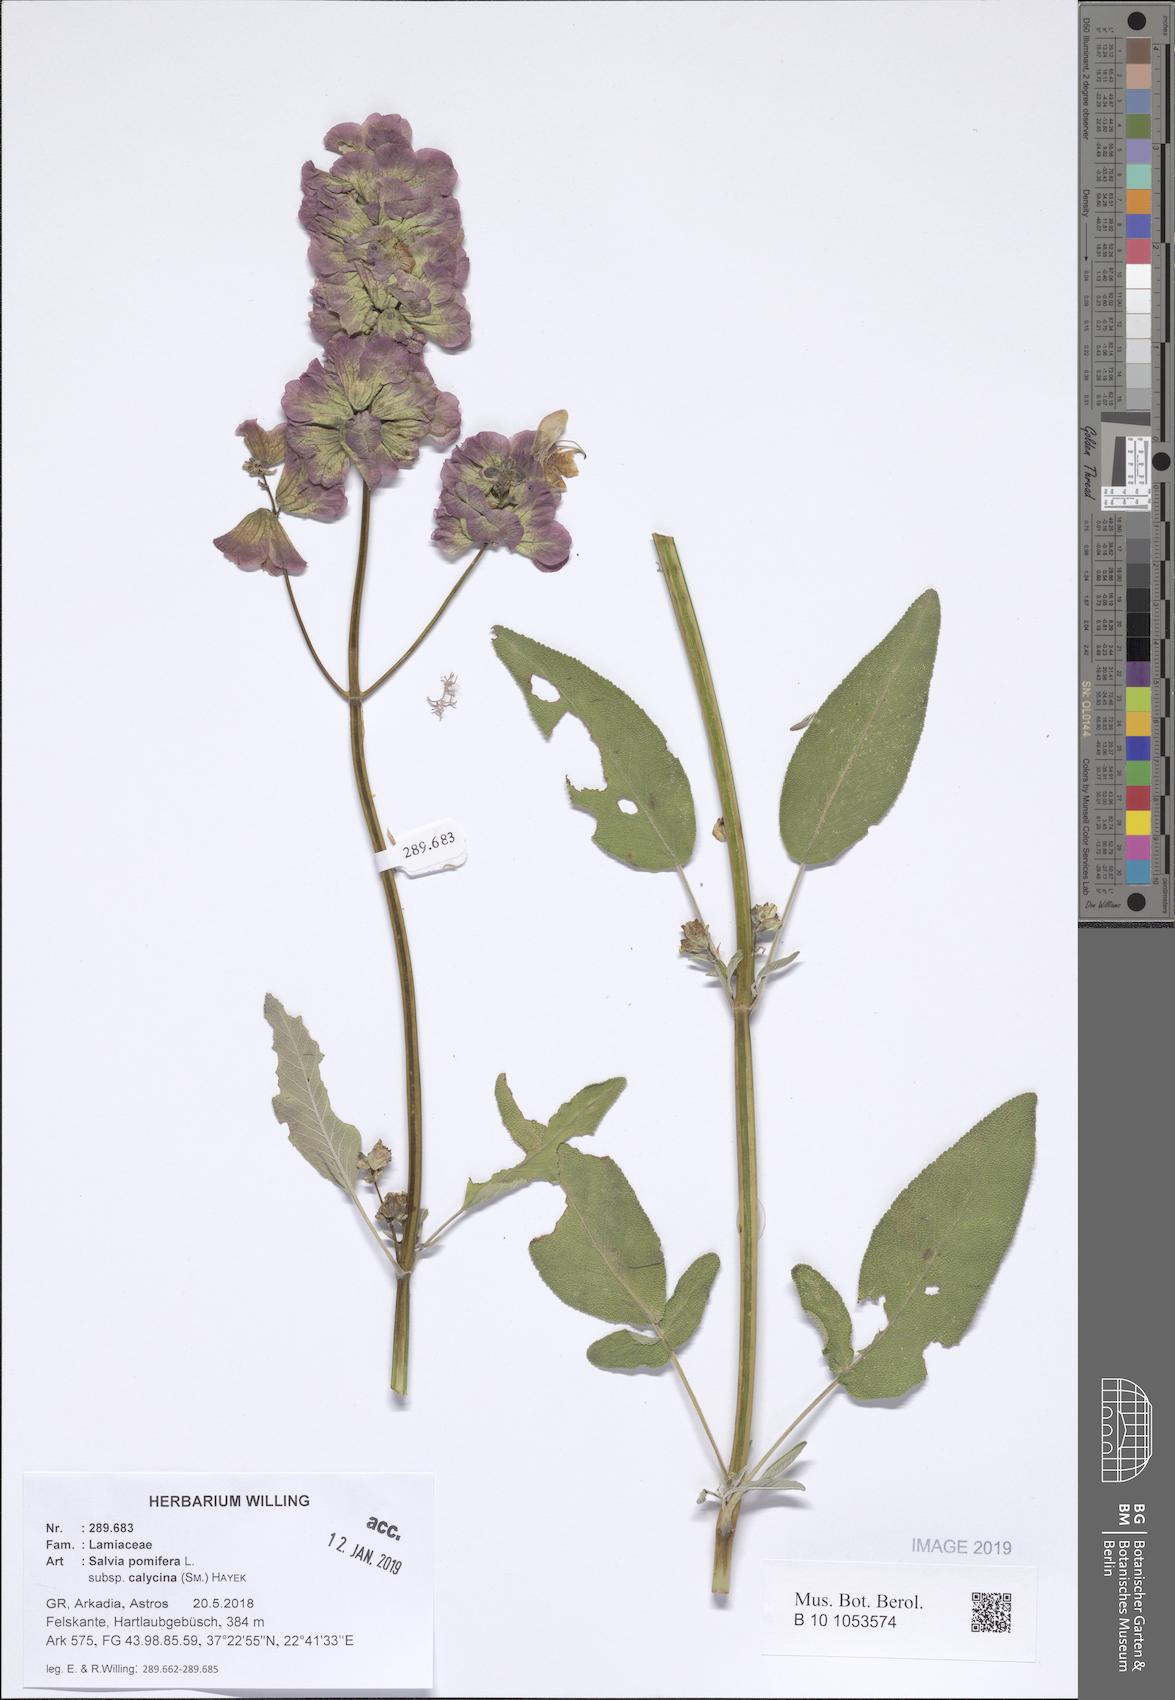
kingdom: Plantae
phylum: Tracheophyta
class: Magnoliopsida
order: Lamiales
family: Lamiaceae
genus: Salvia
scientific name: Salvia pomifera
